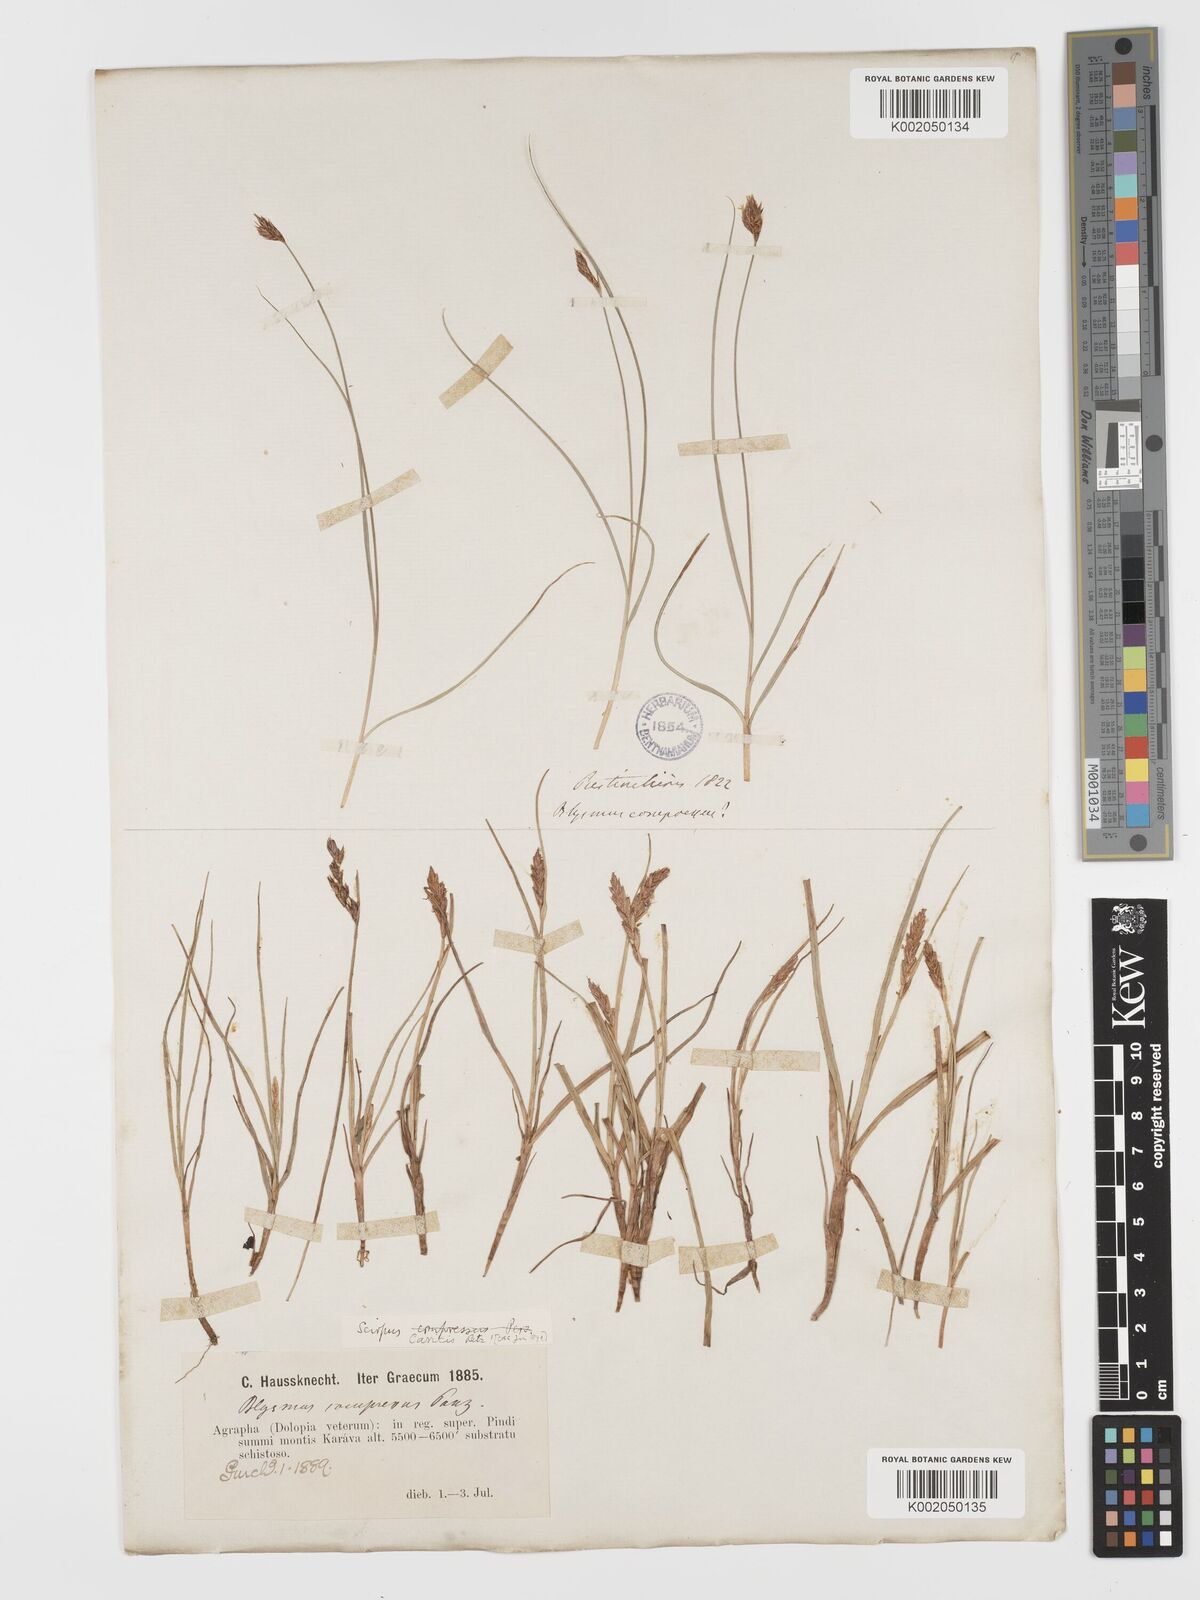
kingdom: Plantae
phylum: Tracheophyta
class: Liliopsida
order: Poales
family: Cyperaceae
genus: Blysmus
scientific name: Blysmus compressus
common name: Flat-sedge
